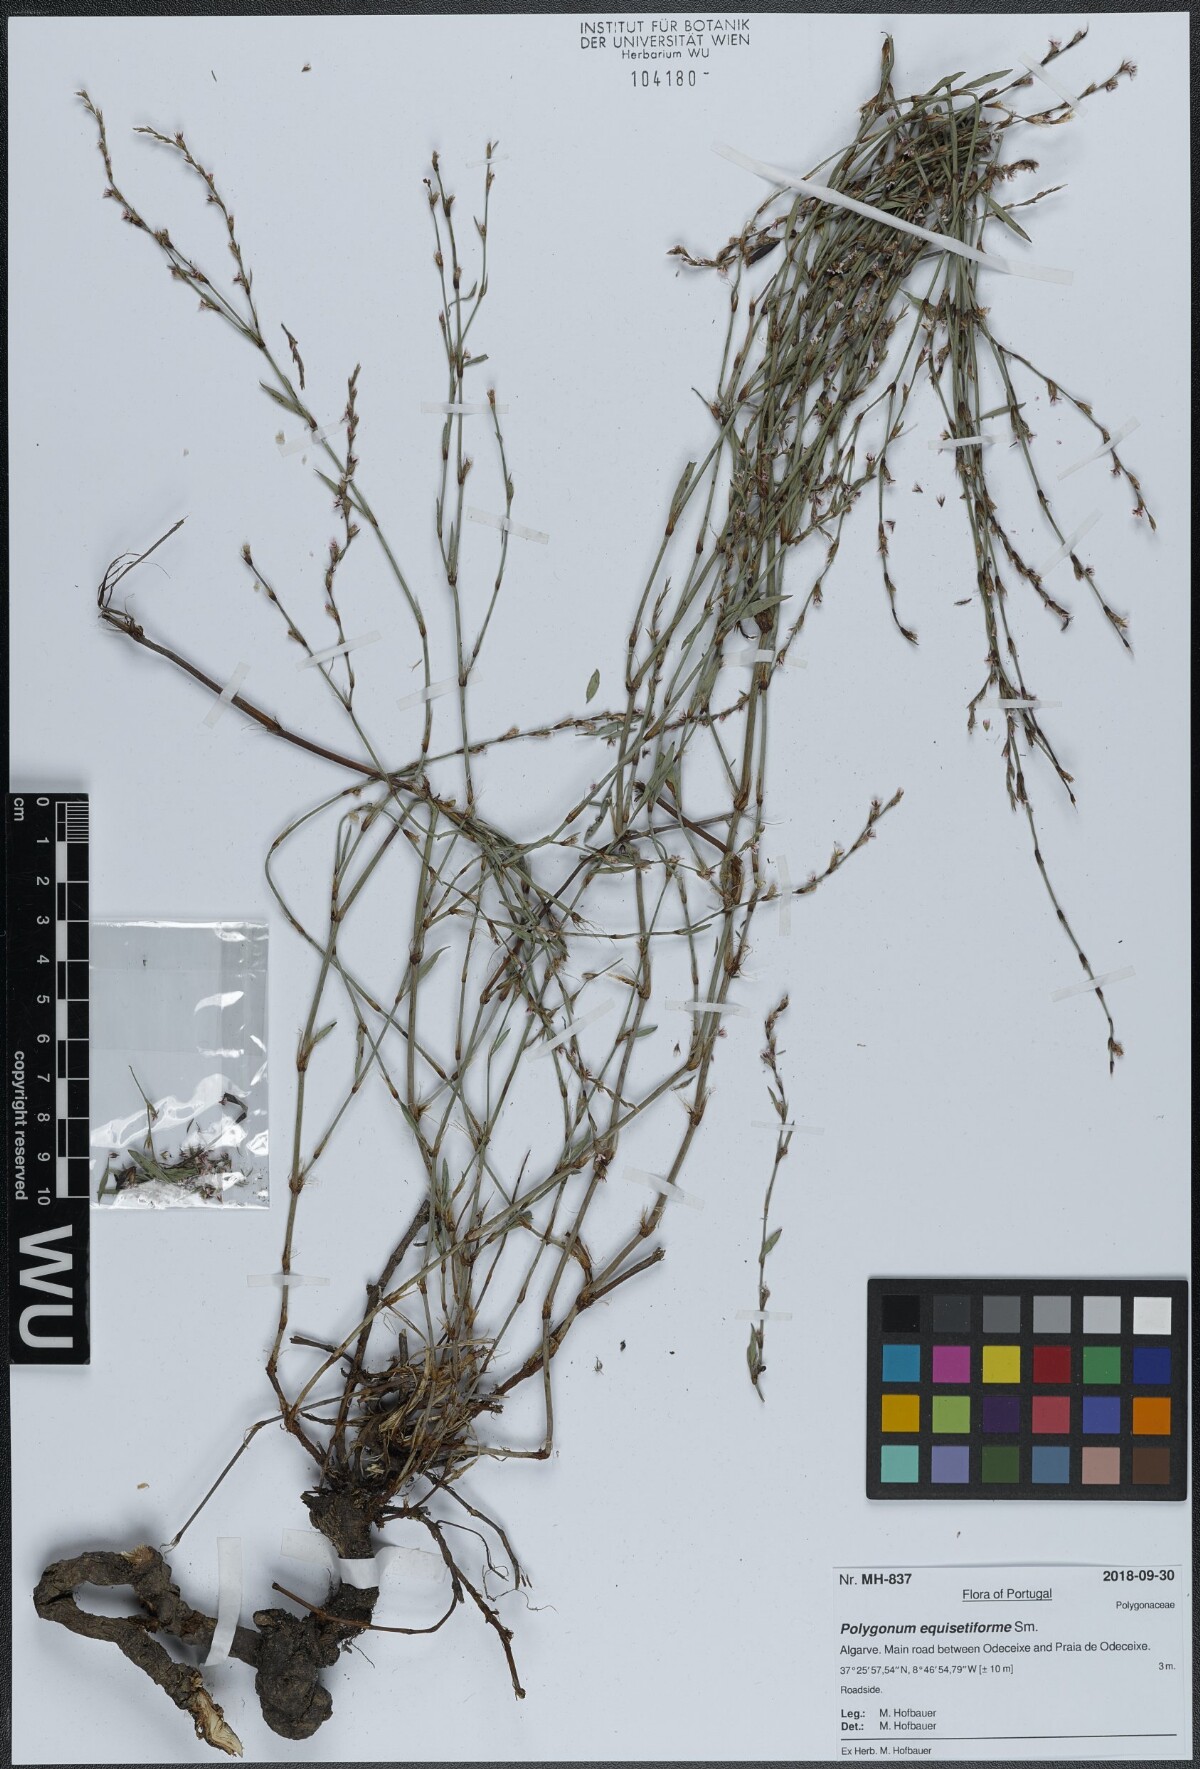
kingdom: Plantae
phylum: Tracheophyta
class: Magnoliopsida
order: Caryophyllales
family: Polygonaceae
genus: Polygonum
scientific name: Polygonum equisetiforme
